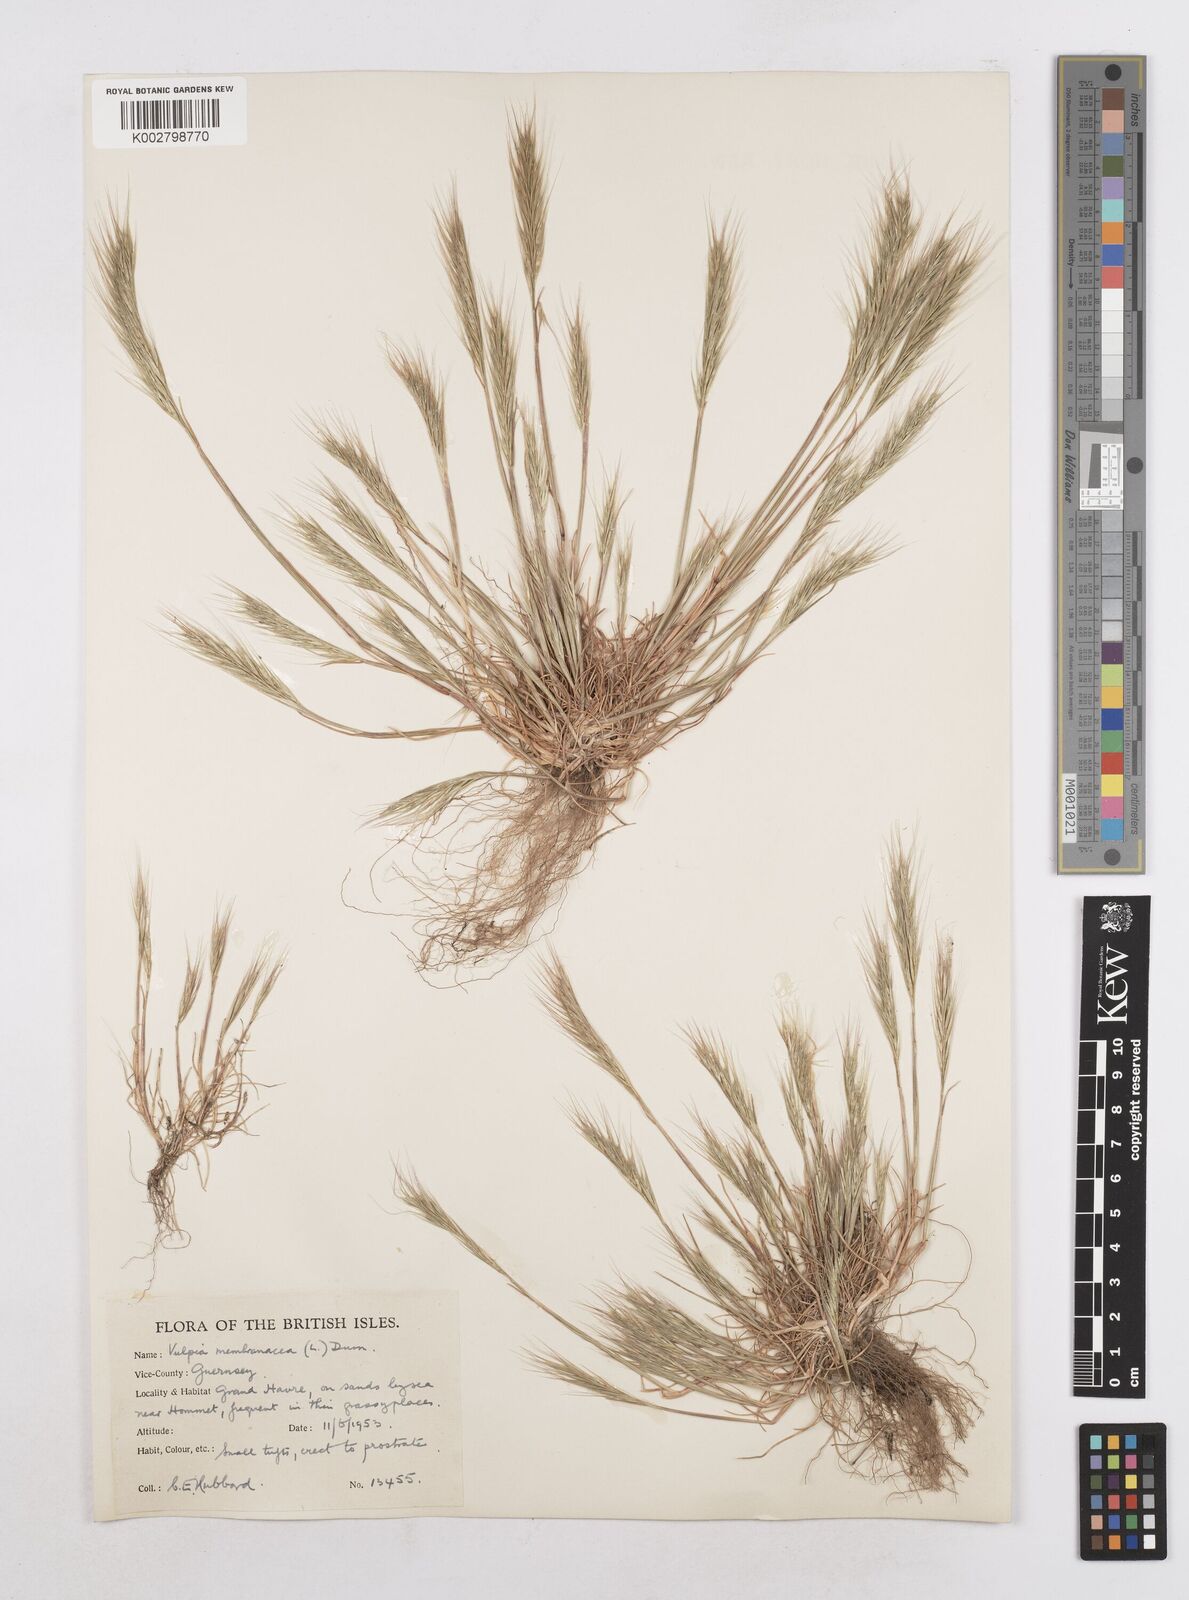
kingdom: Plantae
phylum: Tracheophyta
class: Liliopsida
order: Poales
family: Poaceae
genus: Festuca
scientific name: Festuca fasciculata
